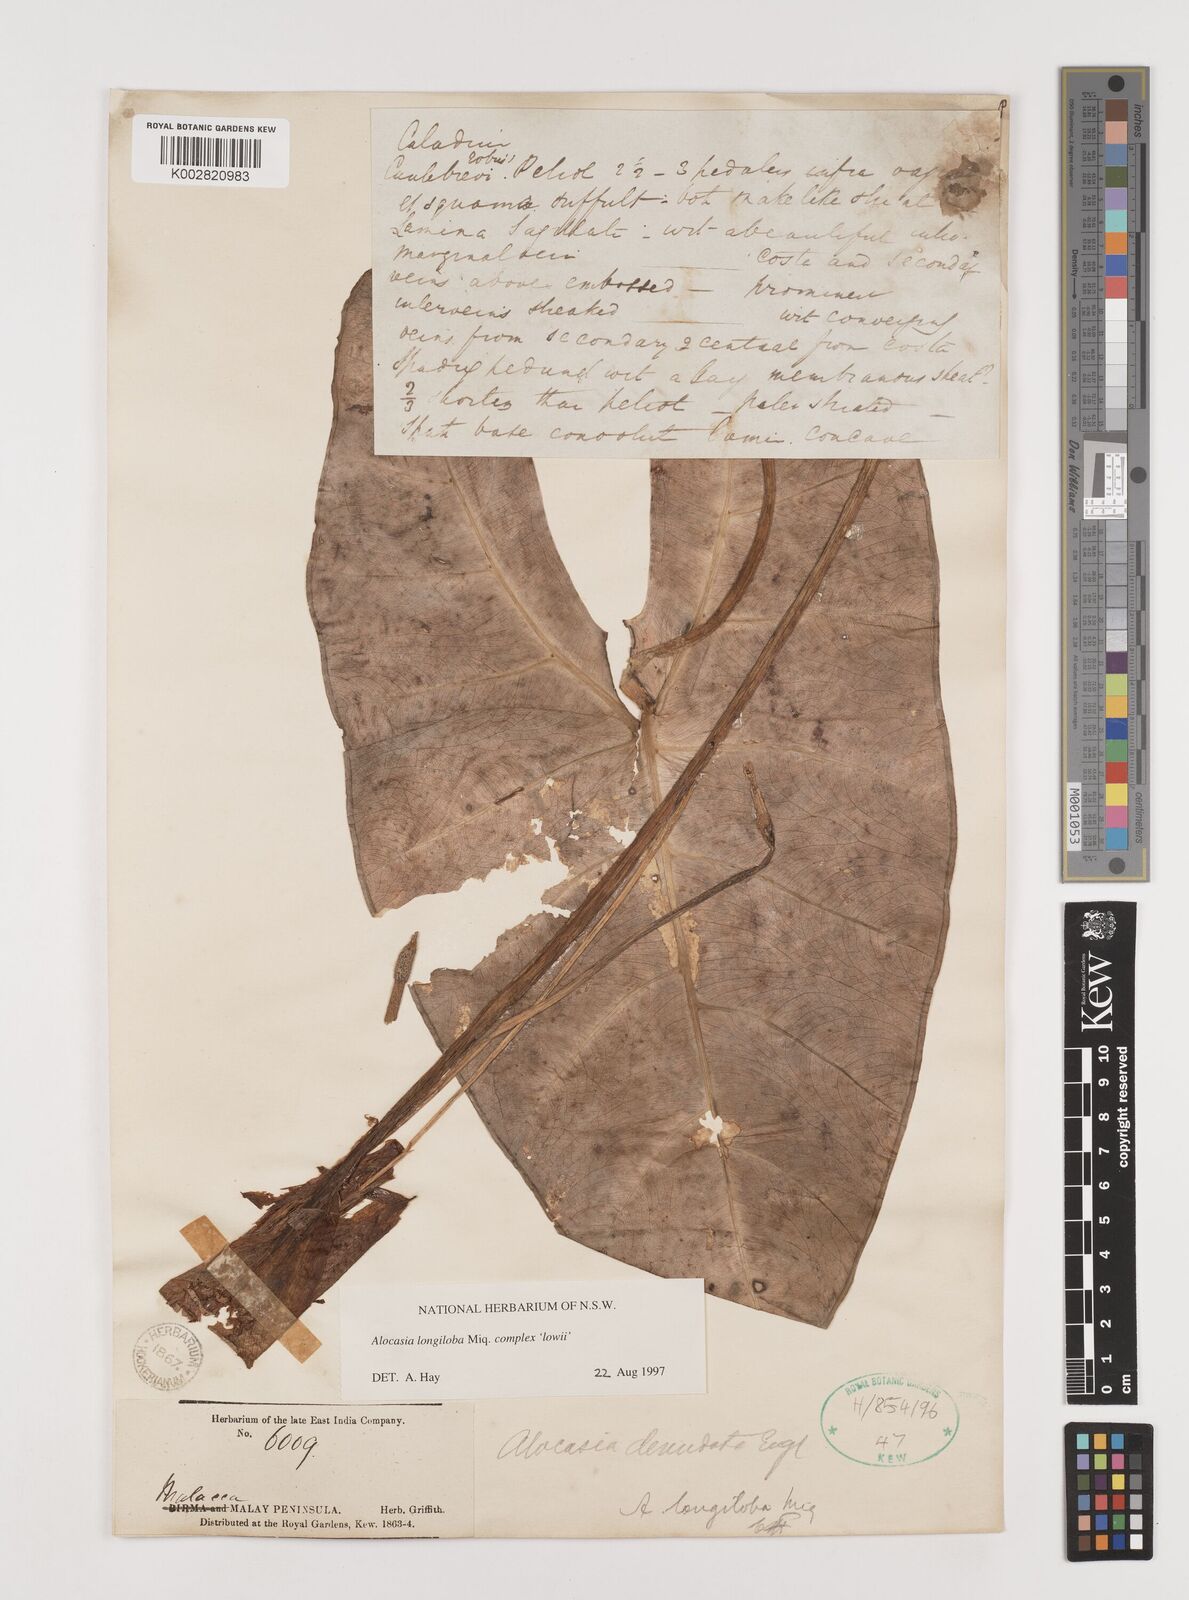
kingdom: Plantae
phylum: Tracheophyta
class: Liliopsida
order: Alismatales
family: Araceae
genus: Alocasia
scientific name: Alocasia longiloba
